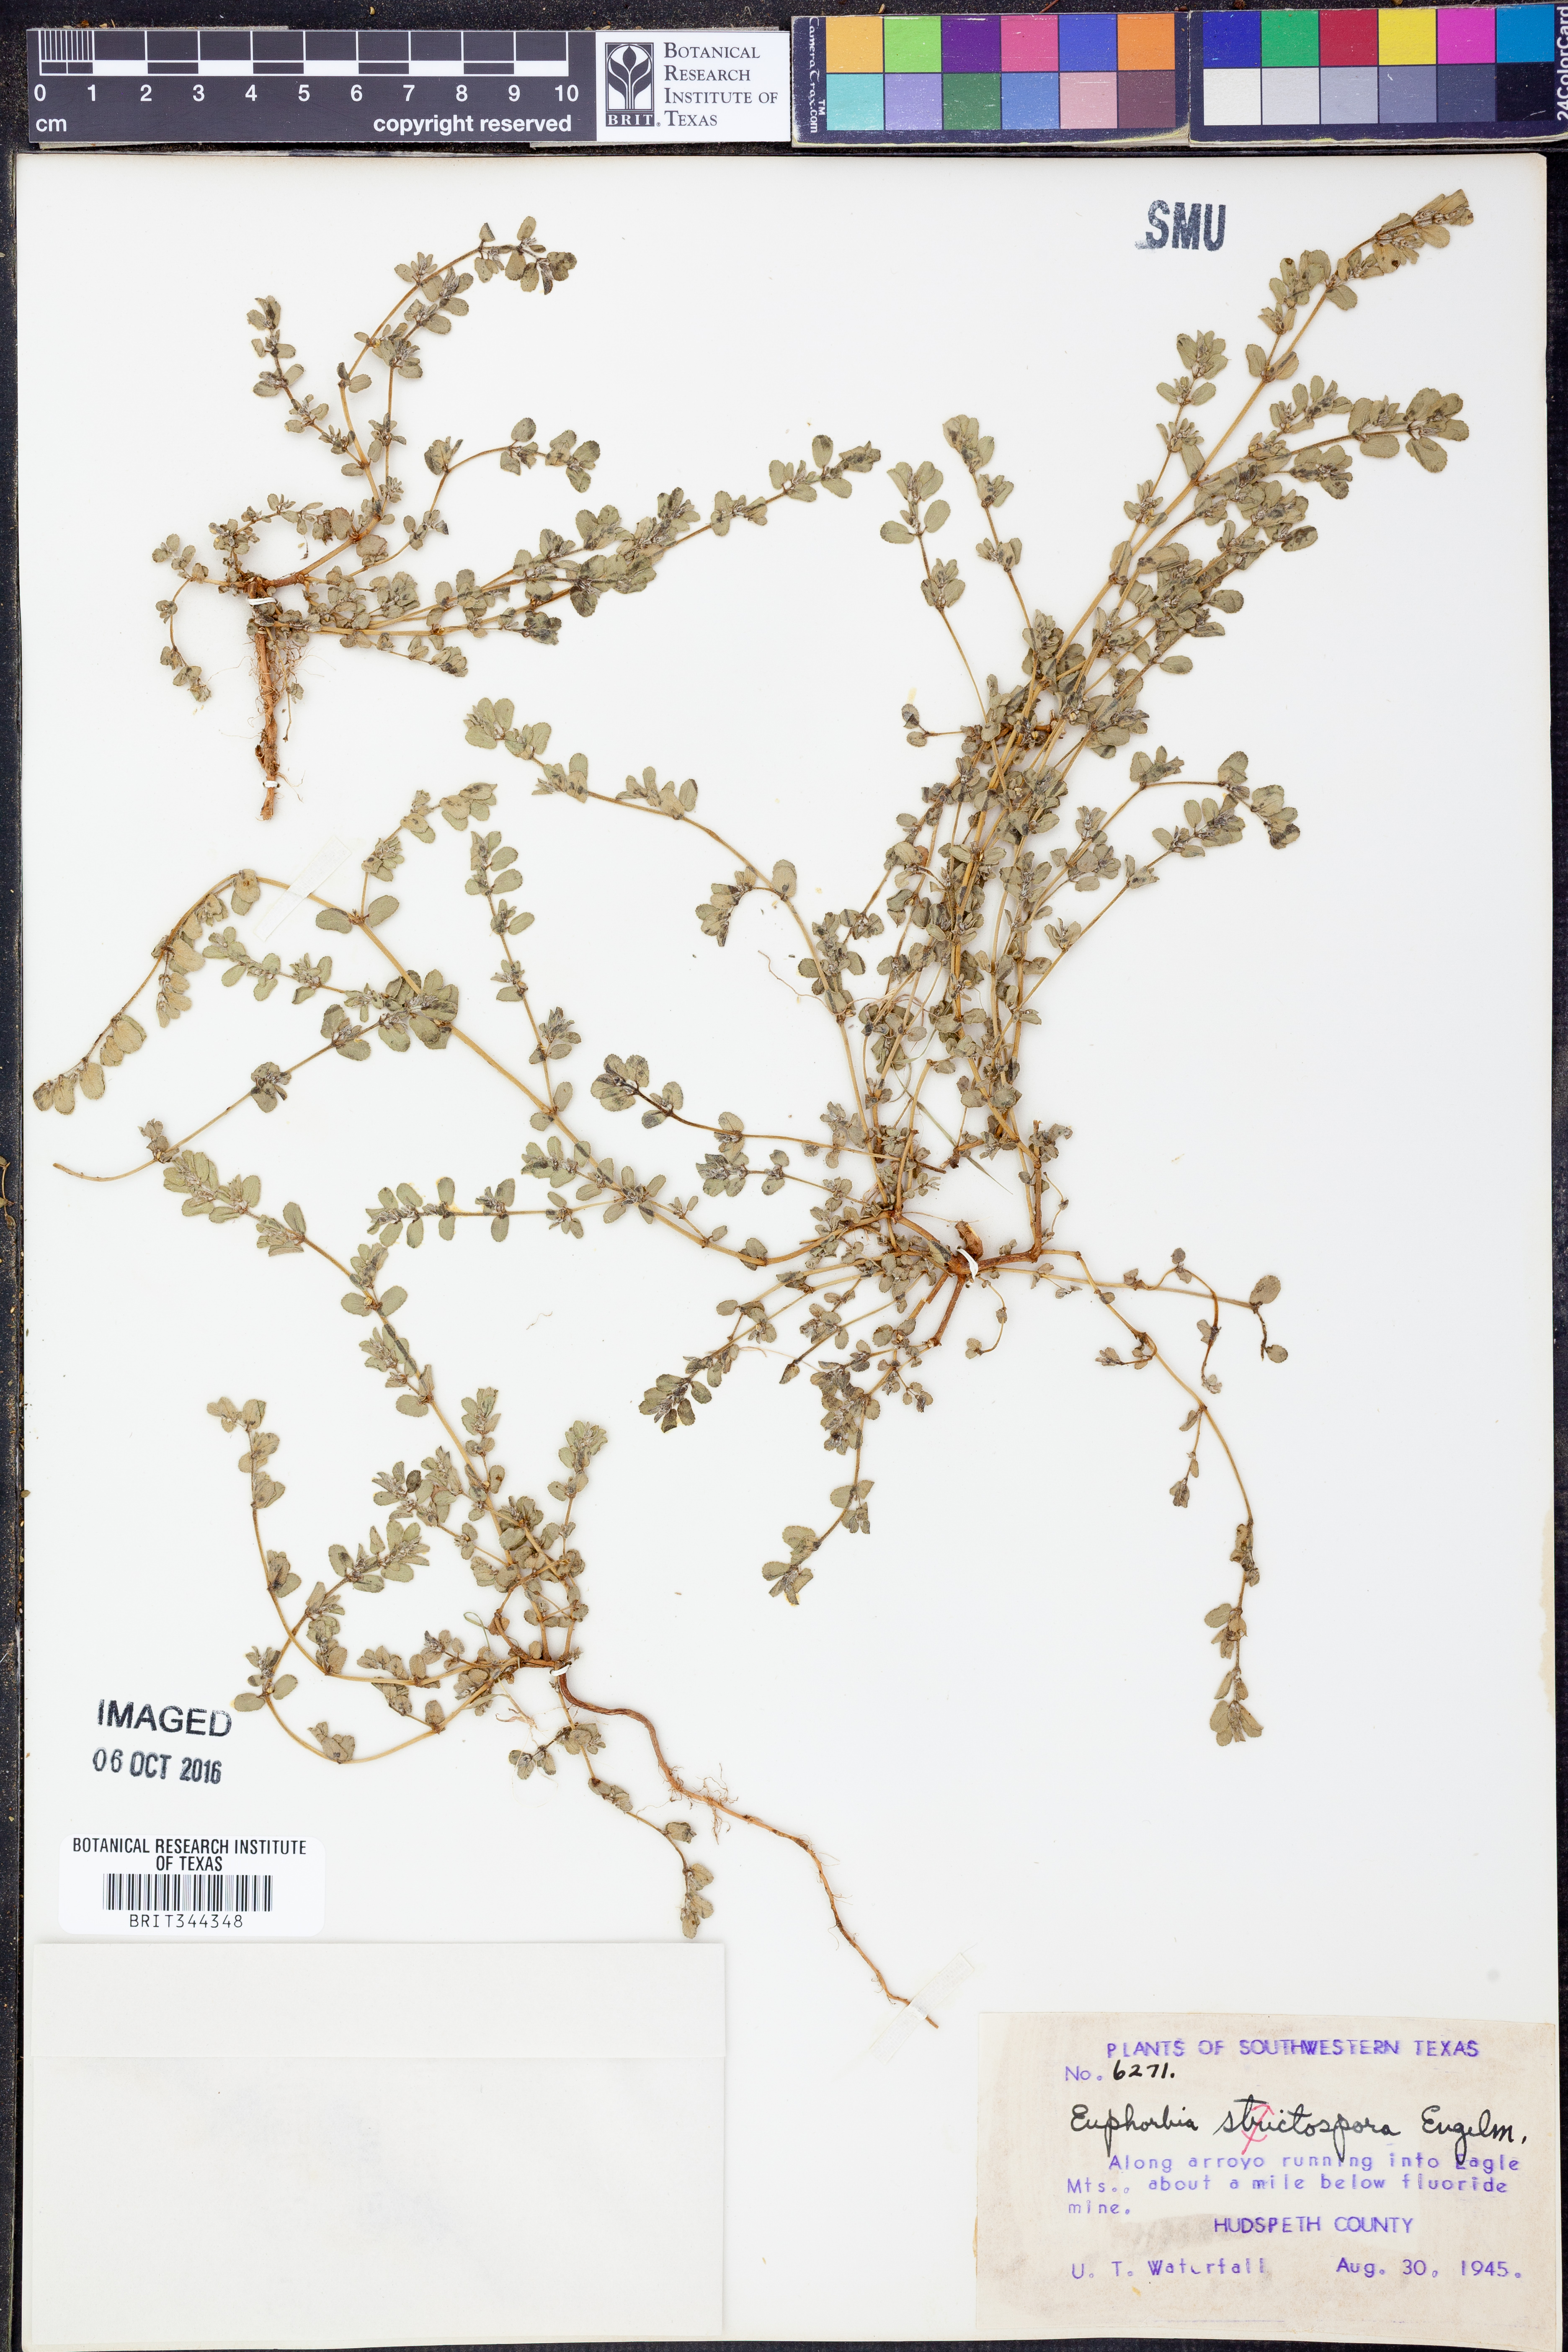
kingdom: Plantae
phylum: Tracheophyta
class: Magnoliopsida
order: Malpighiales
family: Euphorbiaceae
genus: Euphorbia
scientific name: Euphorbia stictospora
